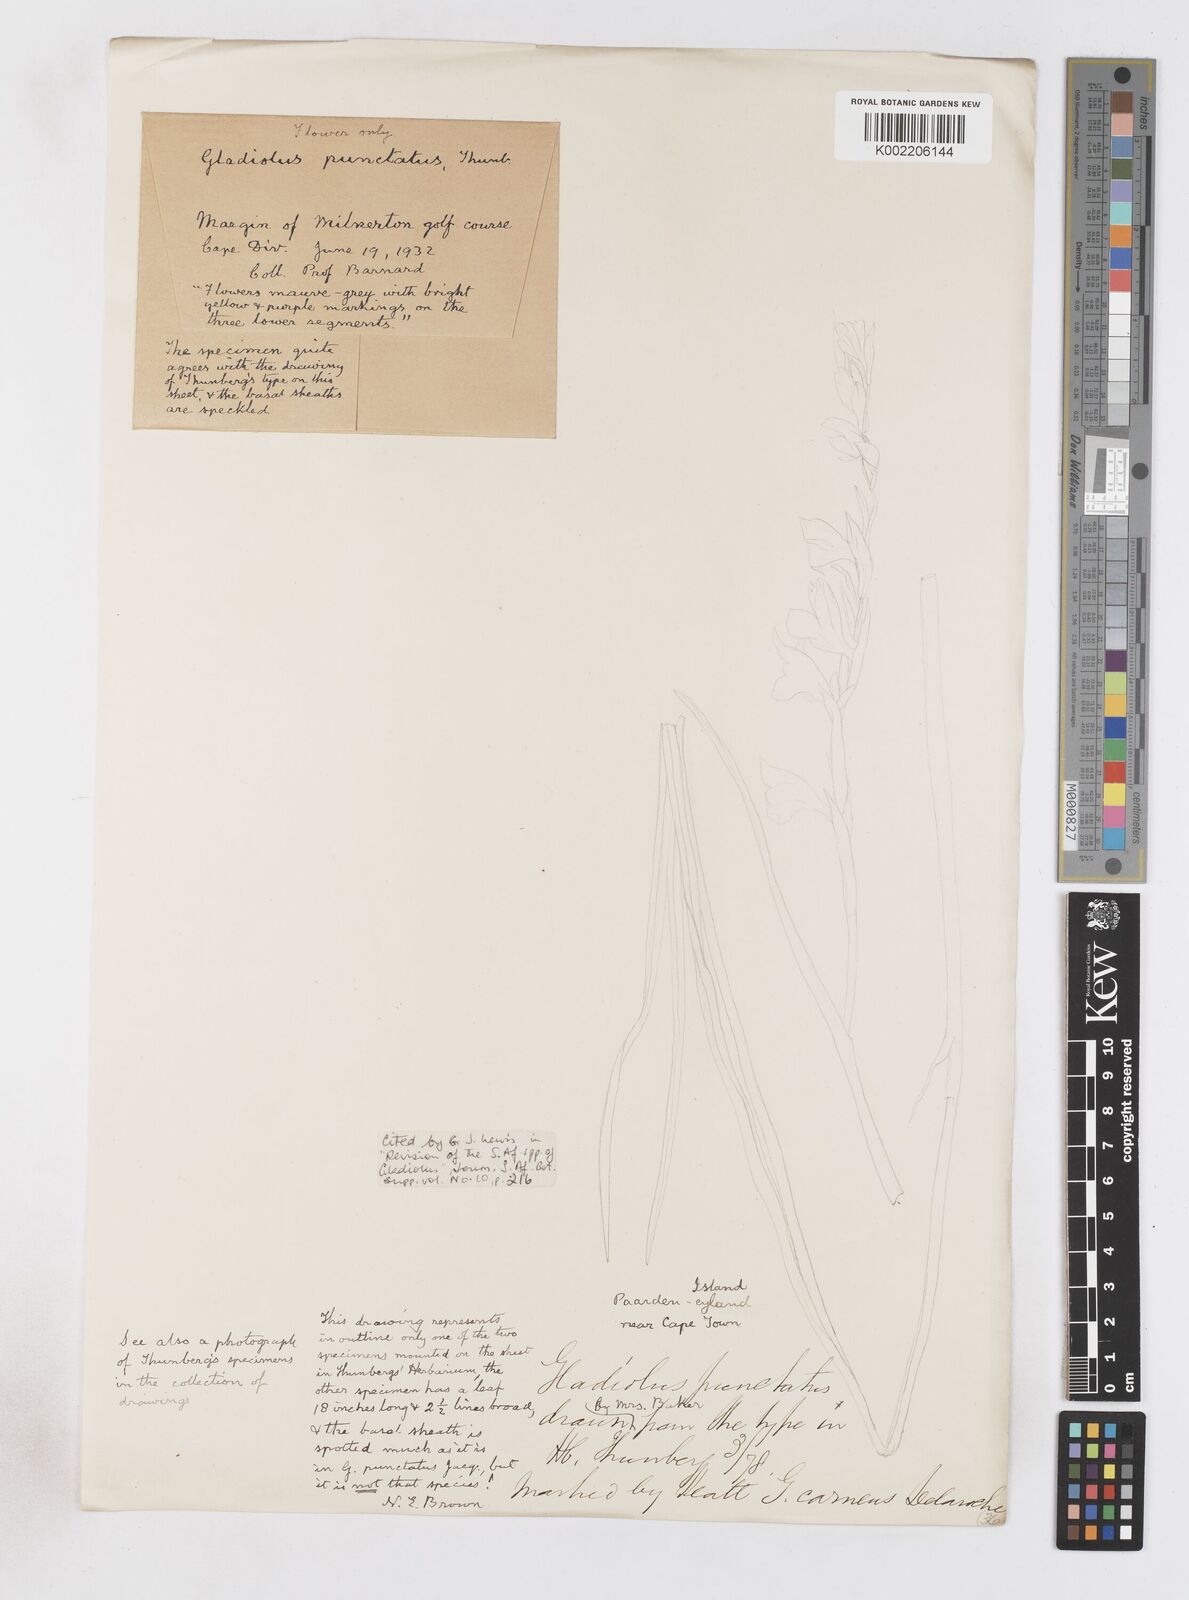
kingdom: Plantae
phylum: Tracheophyta
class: Liliopsida
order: Asparagales
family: Iridaceae
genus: Gladiolus
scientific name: Gladiolus griseus
